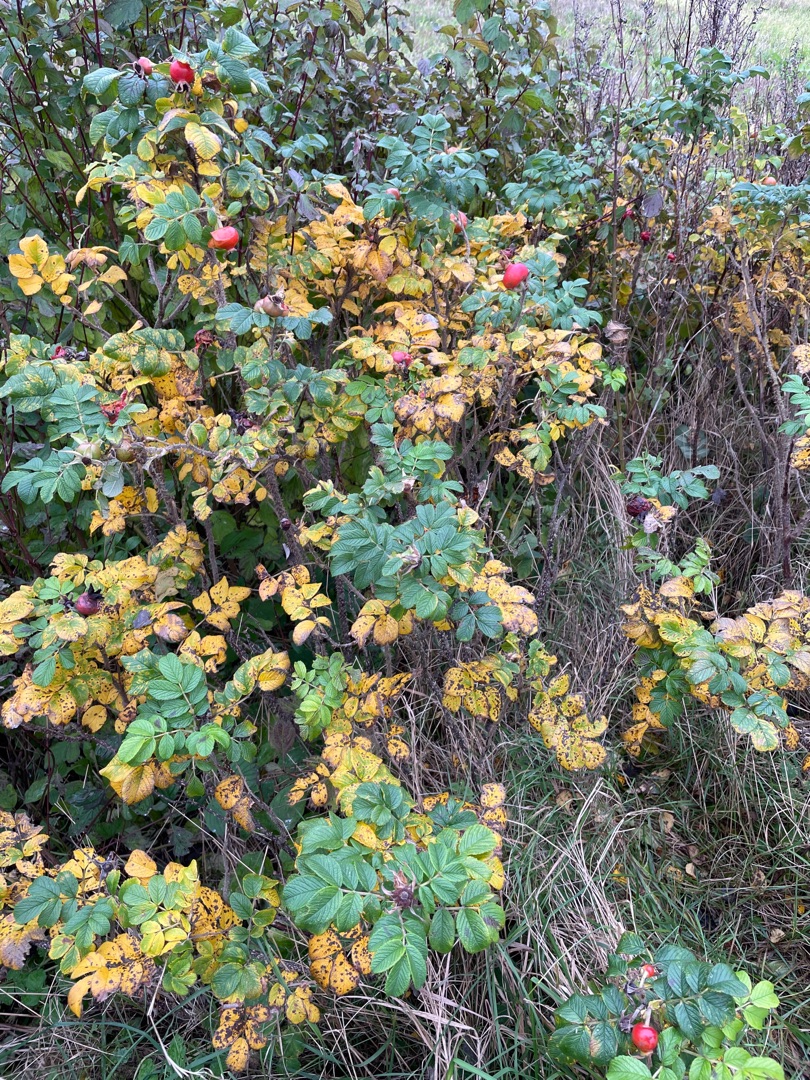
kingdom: Plantae
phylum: Tracheophyta
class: Magnoliopsida
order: Rosales
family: Rosaceae
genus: Rosa
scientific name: Rosa rugosa
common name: Rynket rose
